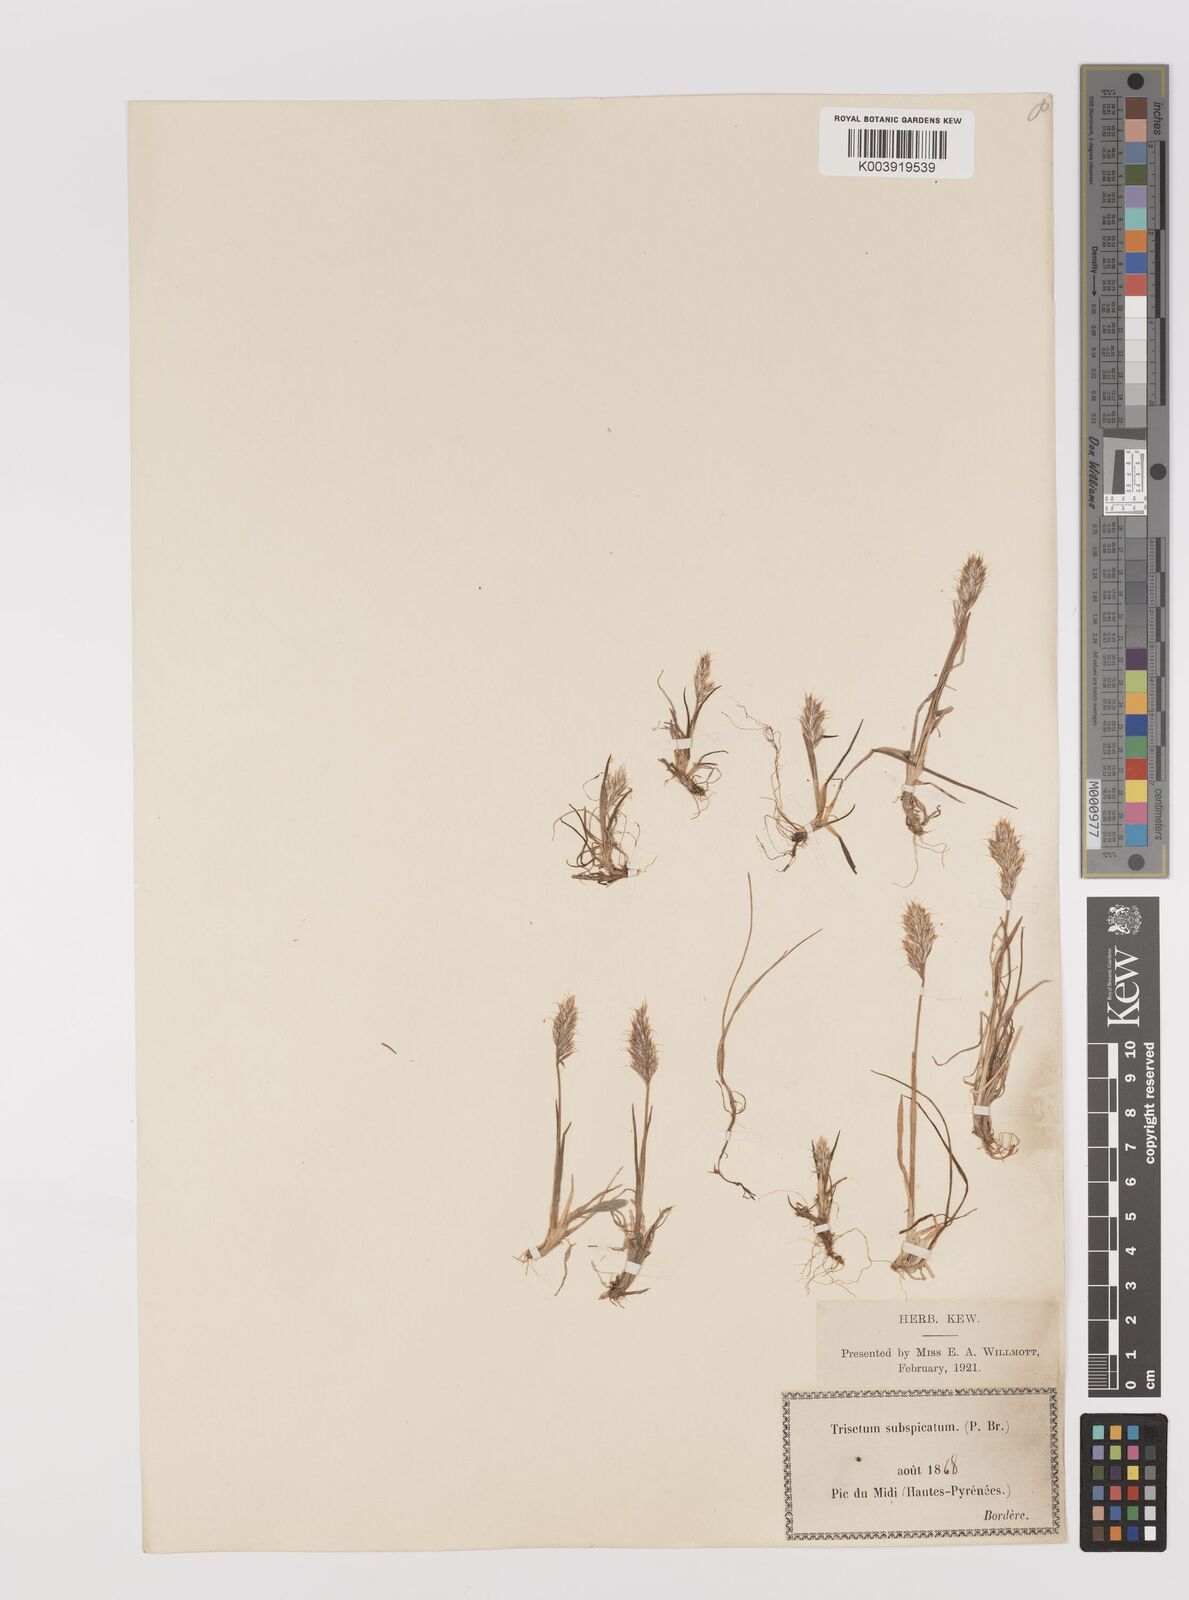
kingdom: Plantae
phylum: Tracheophyta
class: Liliopsida
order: Poales
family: Poaceae
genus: Koeleria
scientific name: Koeleria spicata
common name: Mountain trisetum
